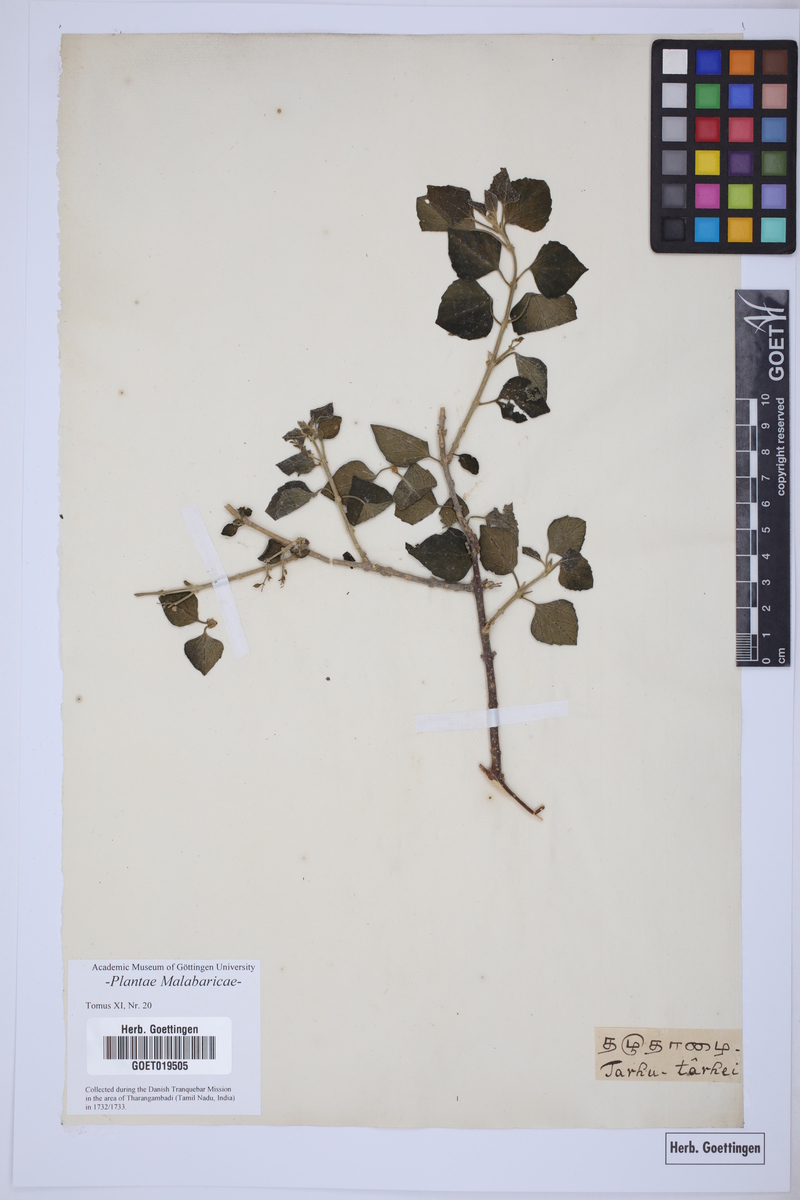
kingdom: Plantae
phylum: Tracheophyta
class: Magnoliopsida
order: Lamiales
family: Lamiaceae
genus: Clerodendrum
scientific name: Clerodendrum phlomoides
